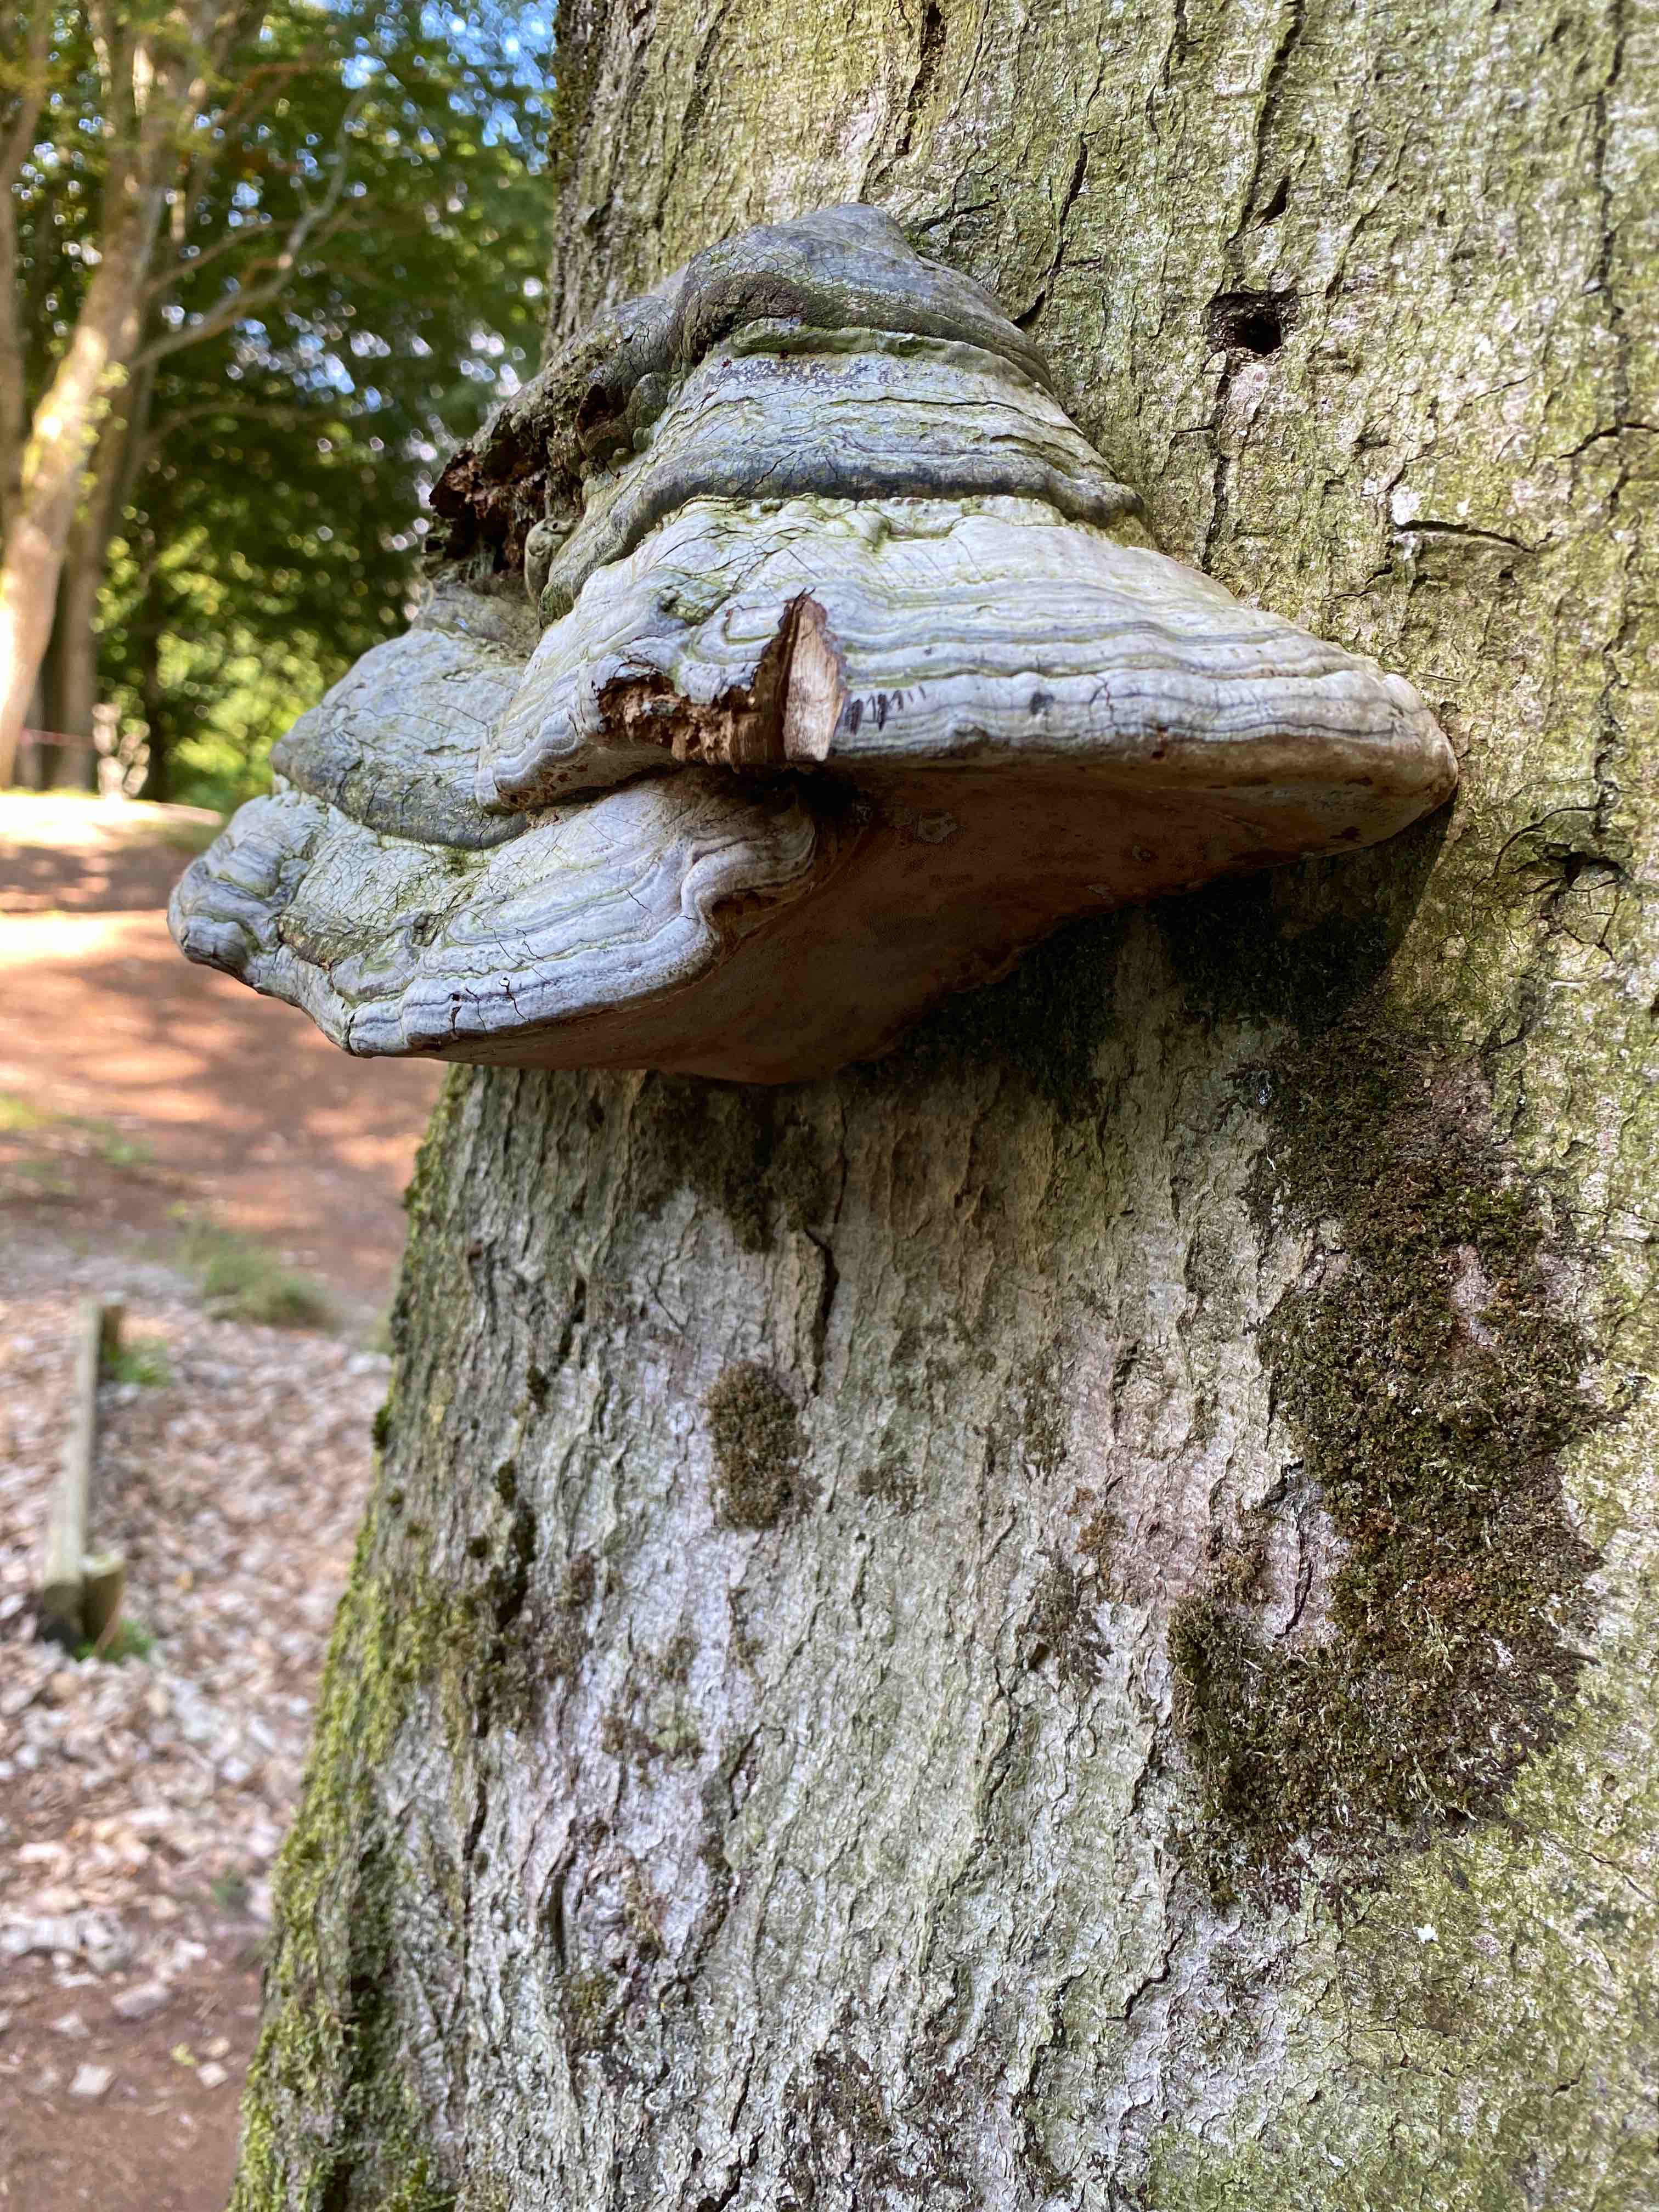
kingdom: Fungi
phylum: Basidiomycota
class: Agaricomycetes
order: Polyporales
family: Polyporaceae
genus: Fomes
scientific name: Fomes fomentarius
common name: tøndersvamp
